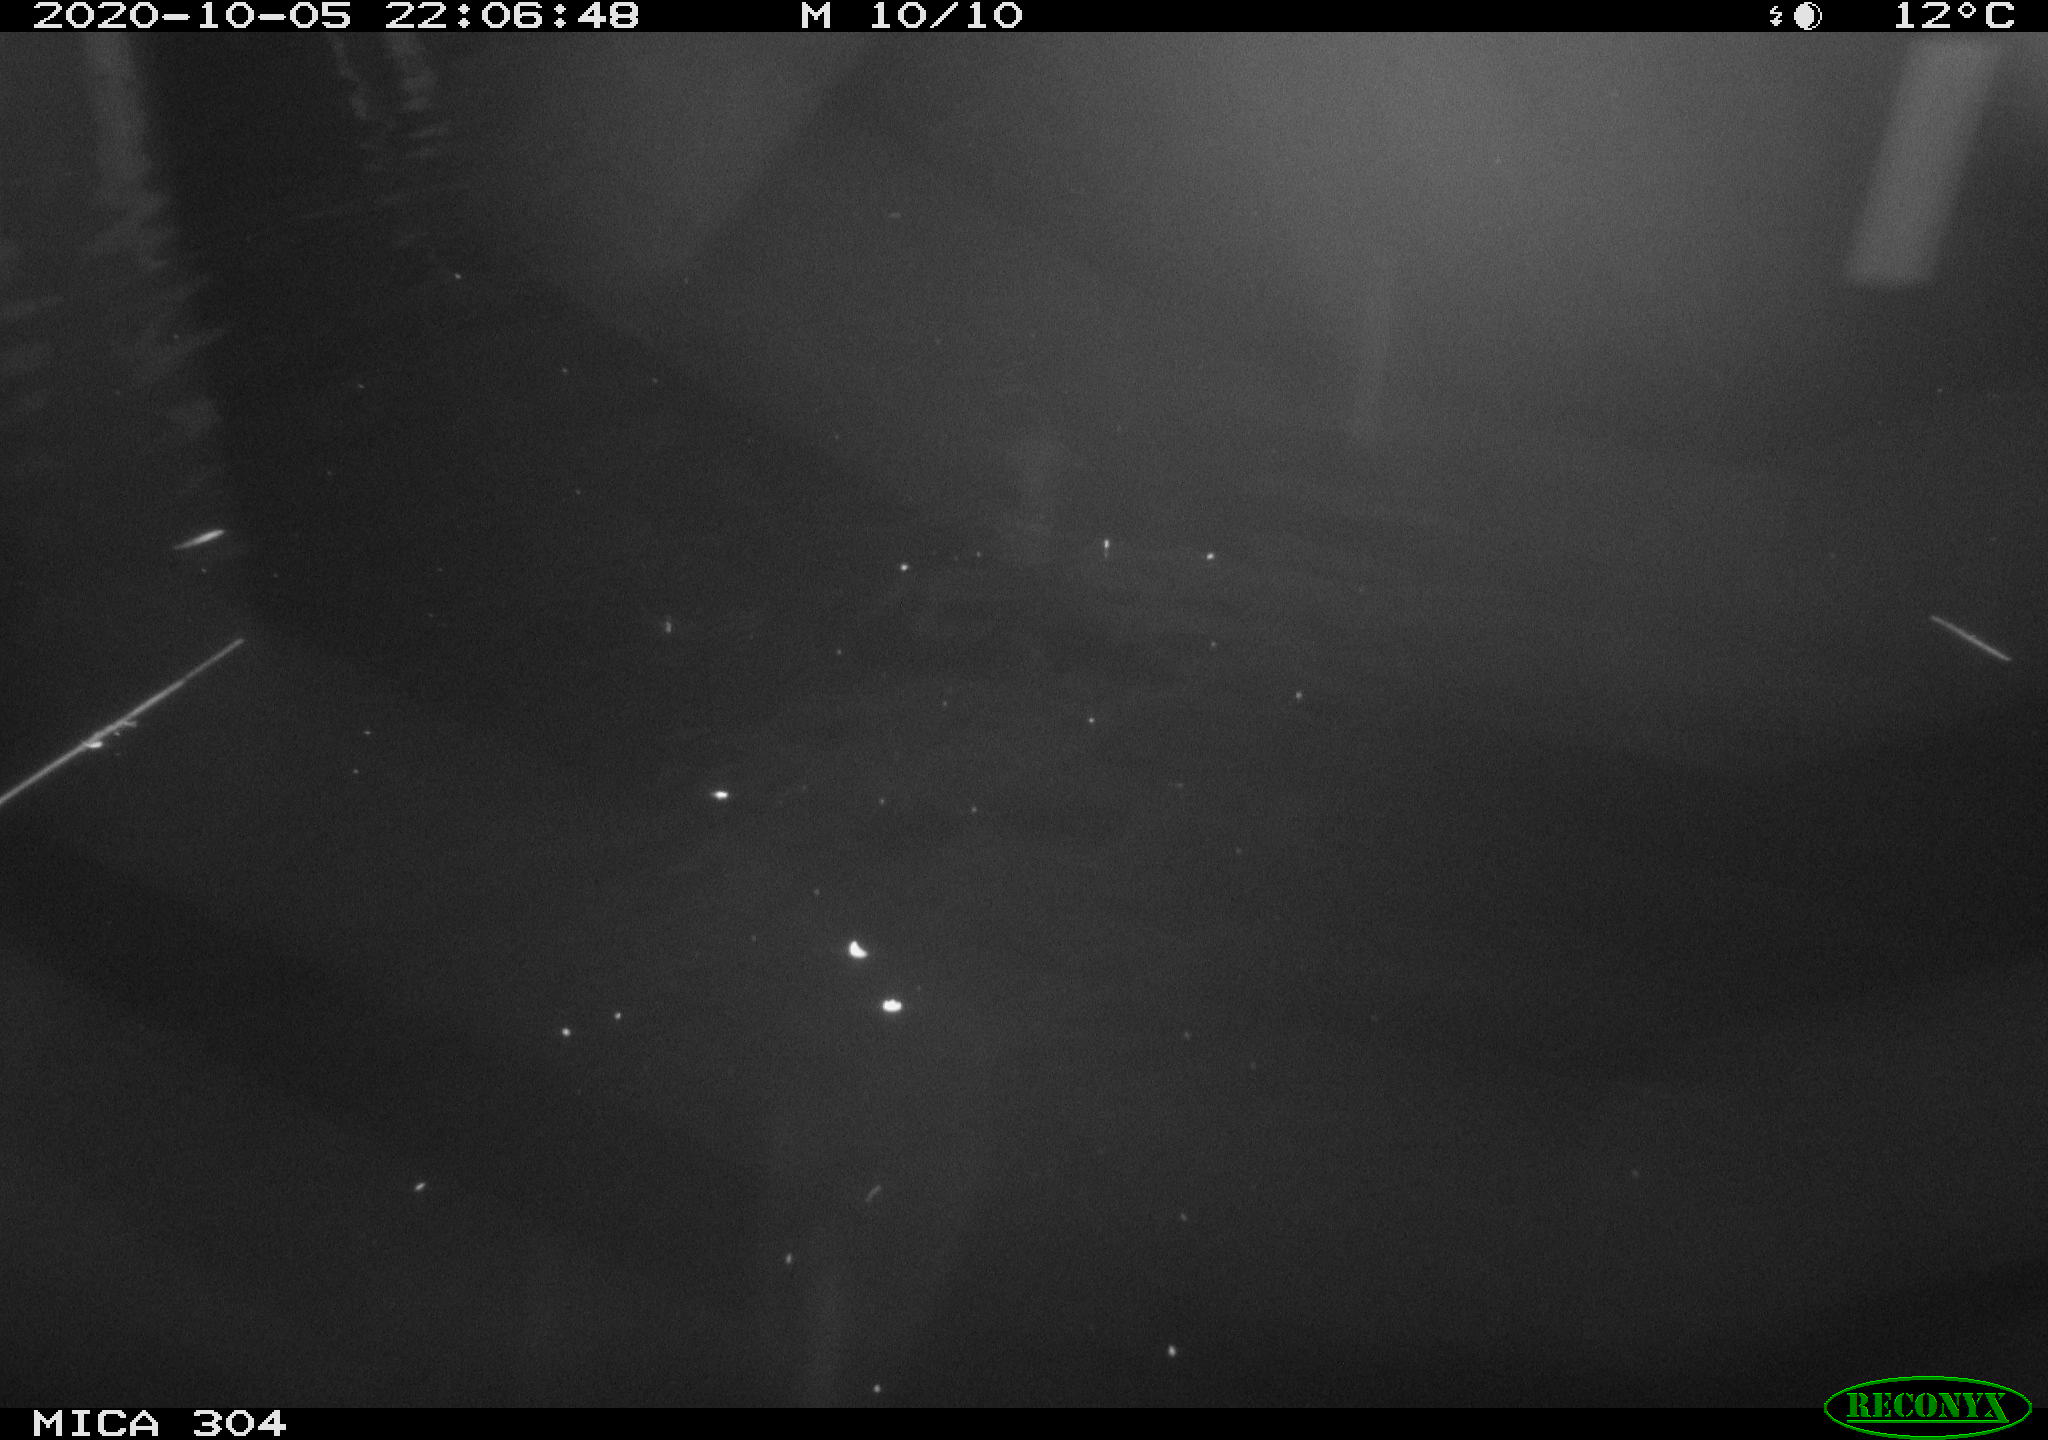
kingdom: Animalia
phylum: Chordata
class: Mammalia
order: Rodentia
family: Cricetidae
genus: Ondatra
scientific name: Ondatra zibethicus
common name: Muskrat
